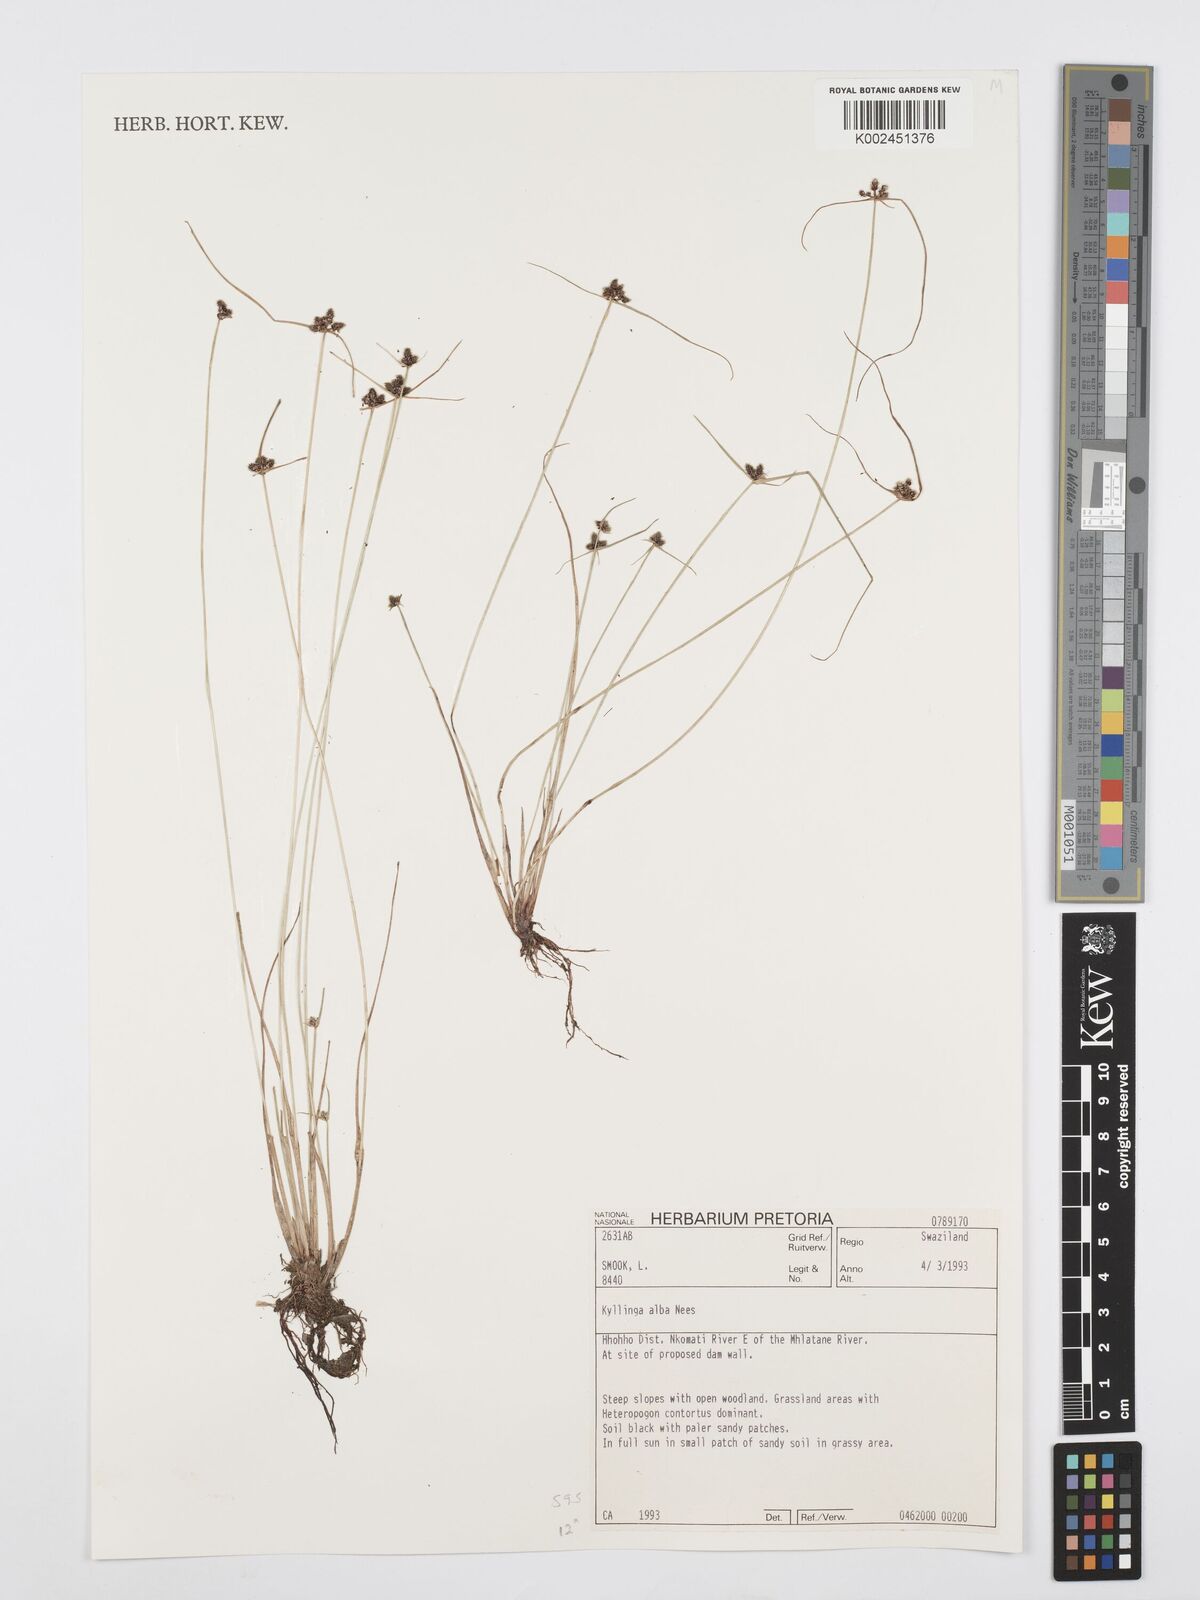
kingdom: Plantae
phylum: Tracheophyta
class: Liliopsida
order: Poales
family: Cyperaceae
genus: Cyperus
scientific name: Cyperus
